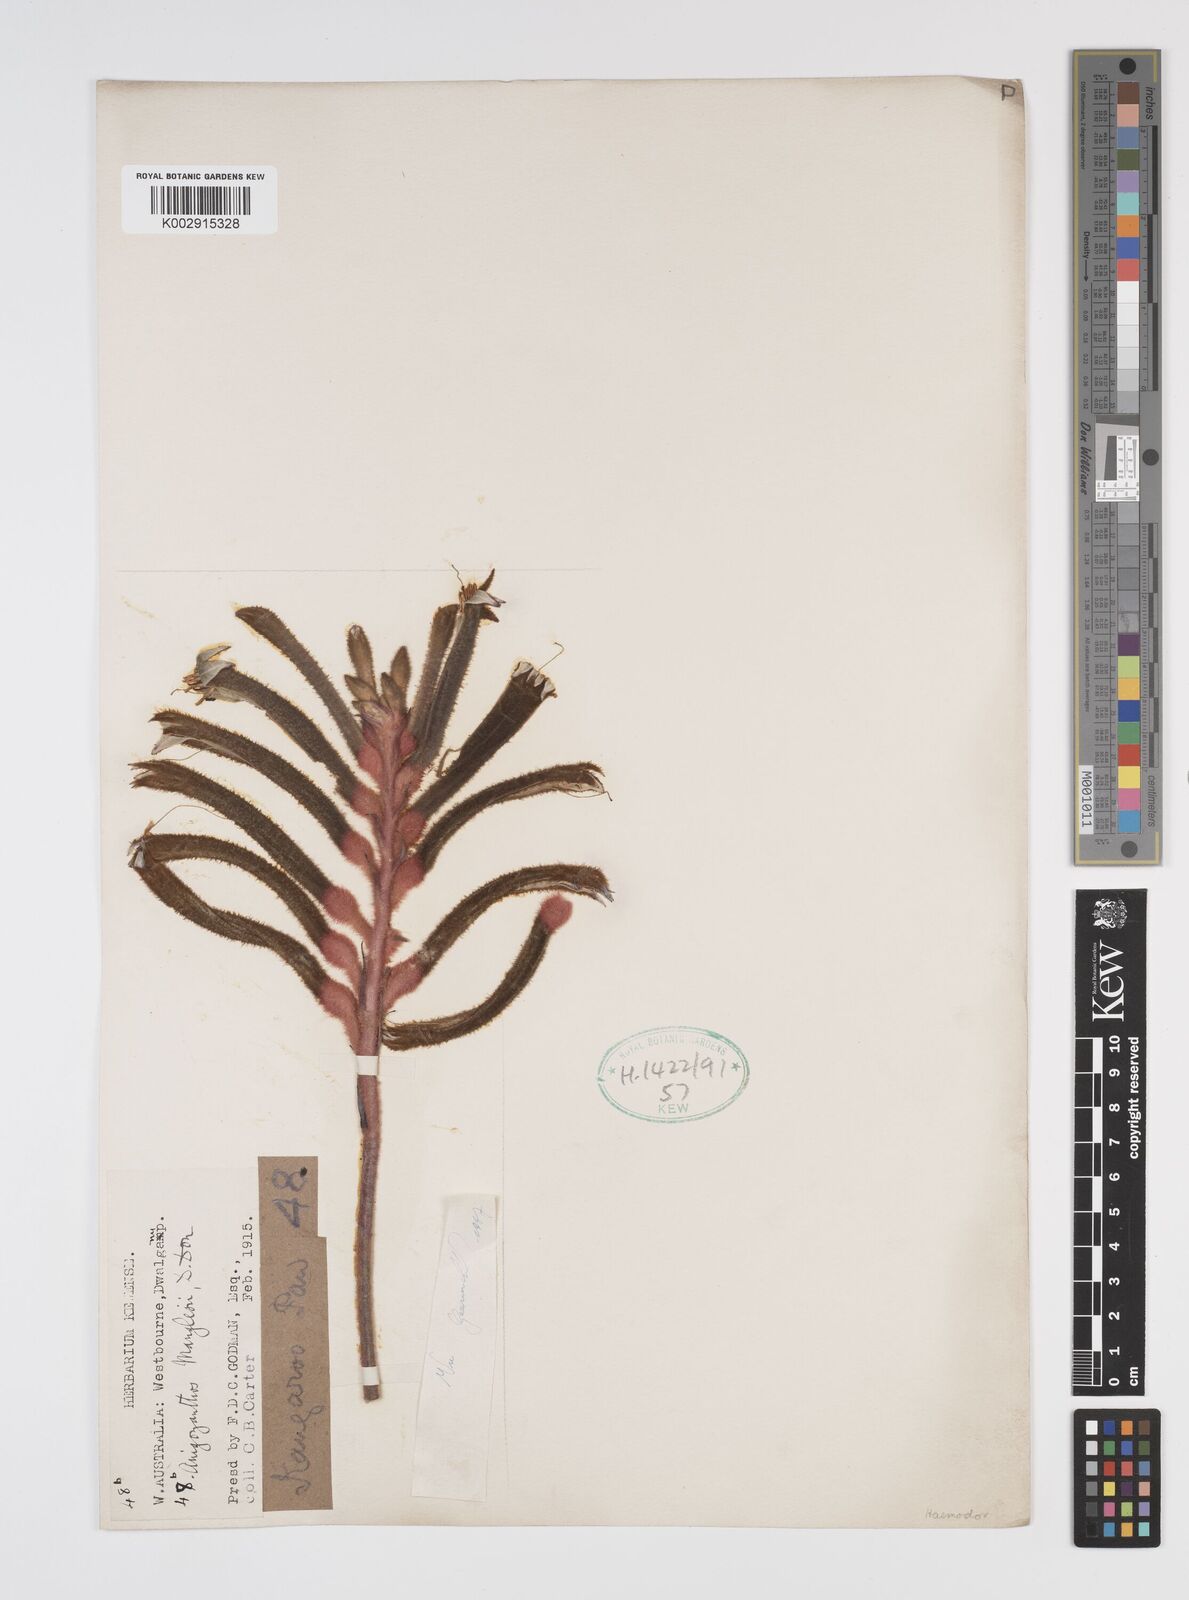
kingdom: Plantae
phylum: Tracheophyta
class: Liliopsida
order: Commelinales
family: Haemodoraceae
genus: Anigozanthos
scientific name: Anigozanthos manglesii
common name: Mangles's kangaroo-paw
